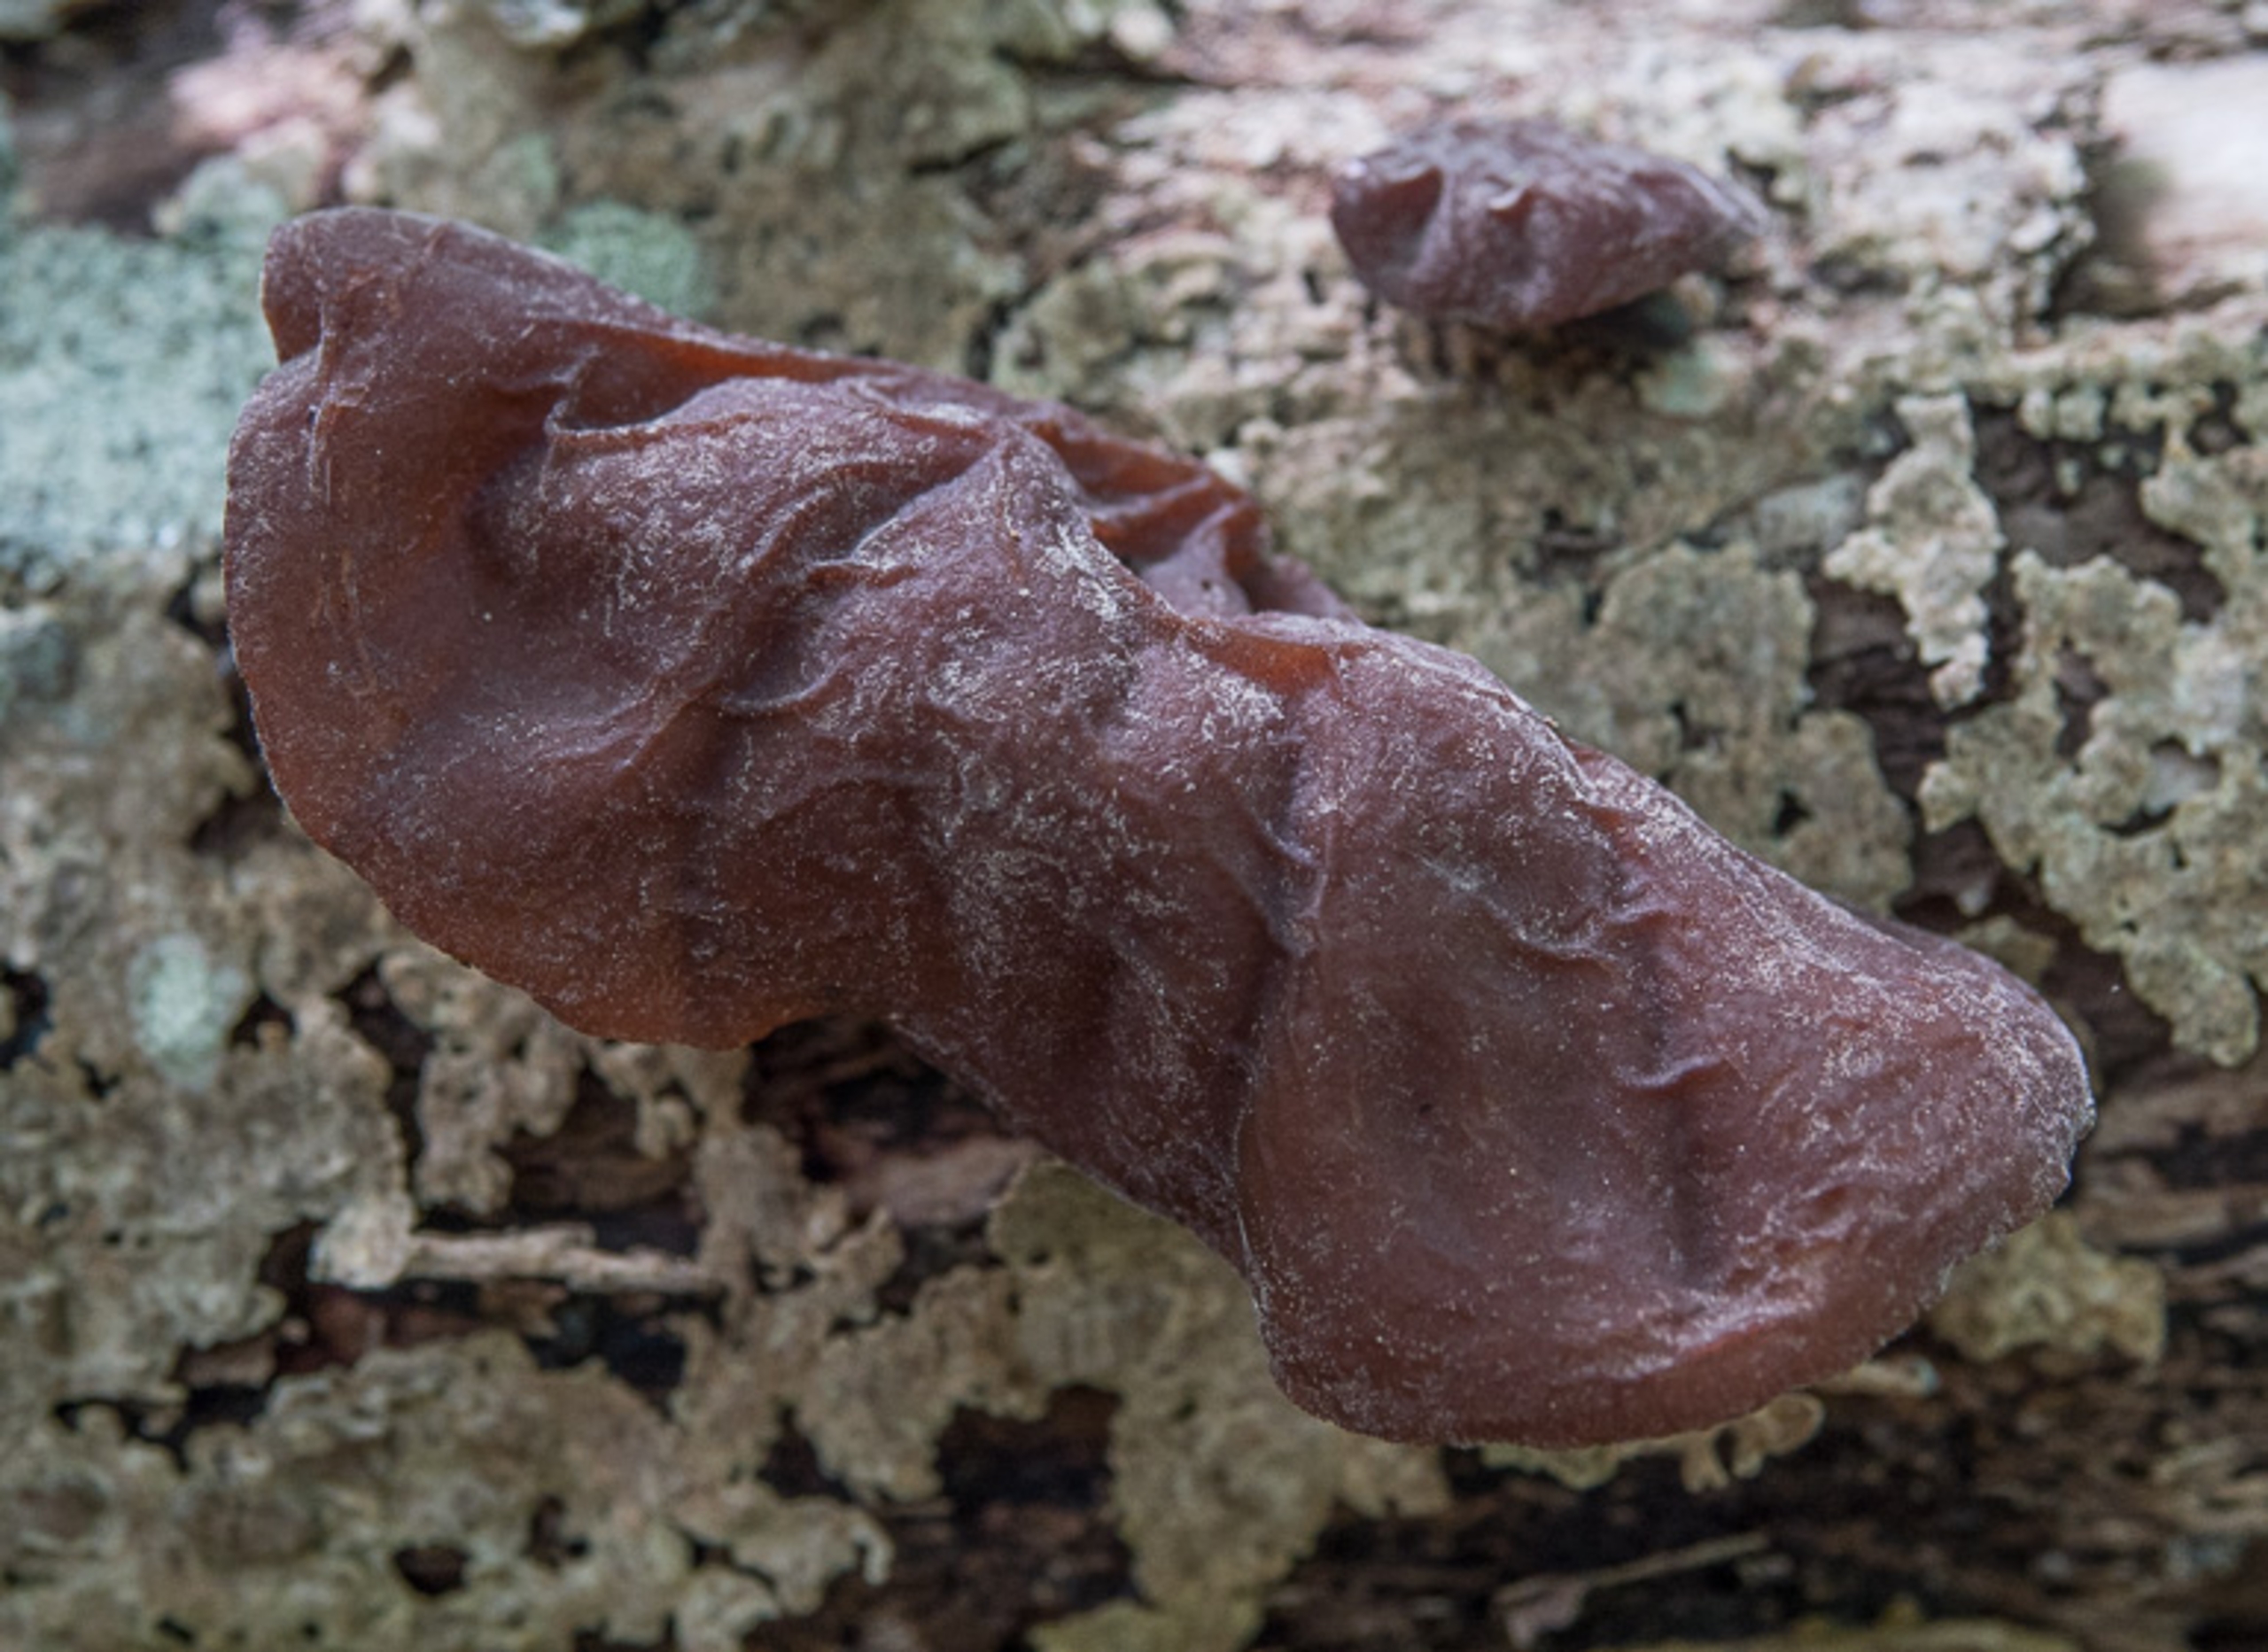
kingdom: Fungi
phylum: Basidiomycota
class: Agaricomycetes
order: Auriculariales
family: Auriculariaceae
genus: Auricularia
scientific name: Auricularia auricula-judae
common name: Almindelig judasøre
